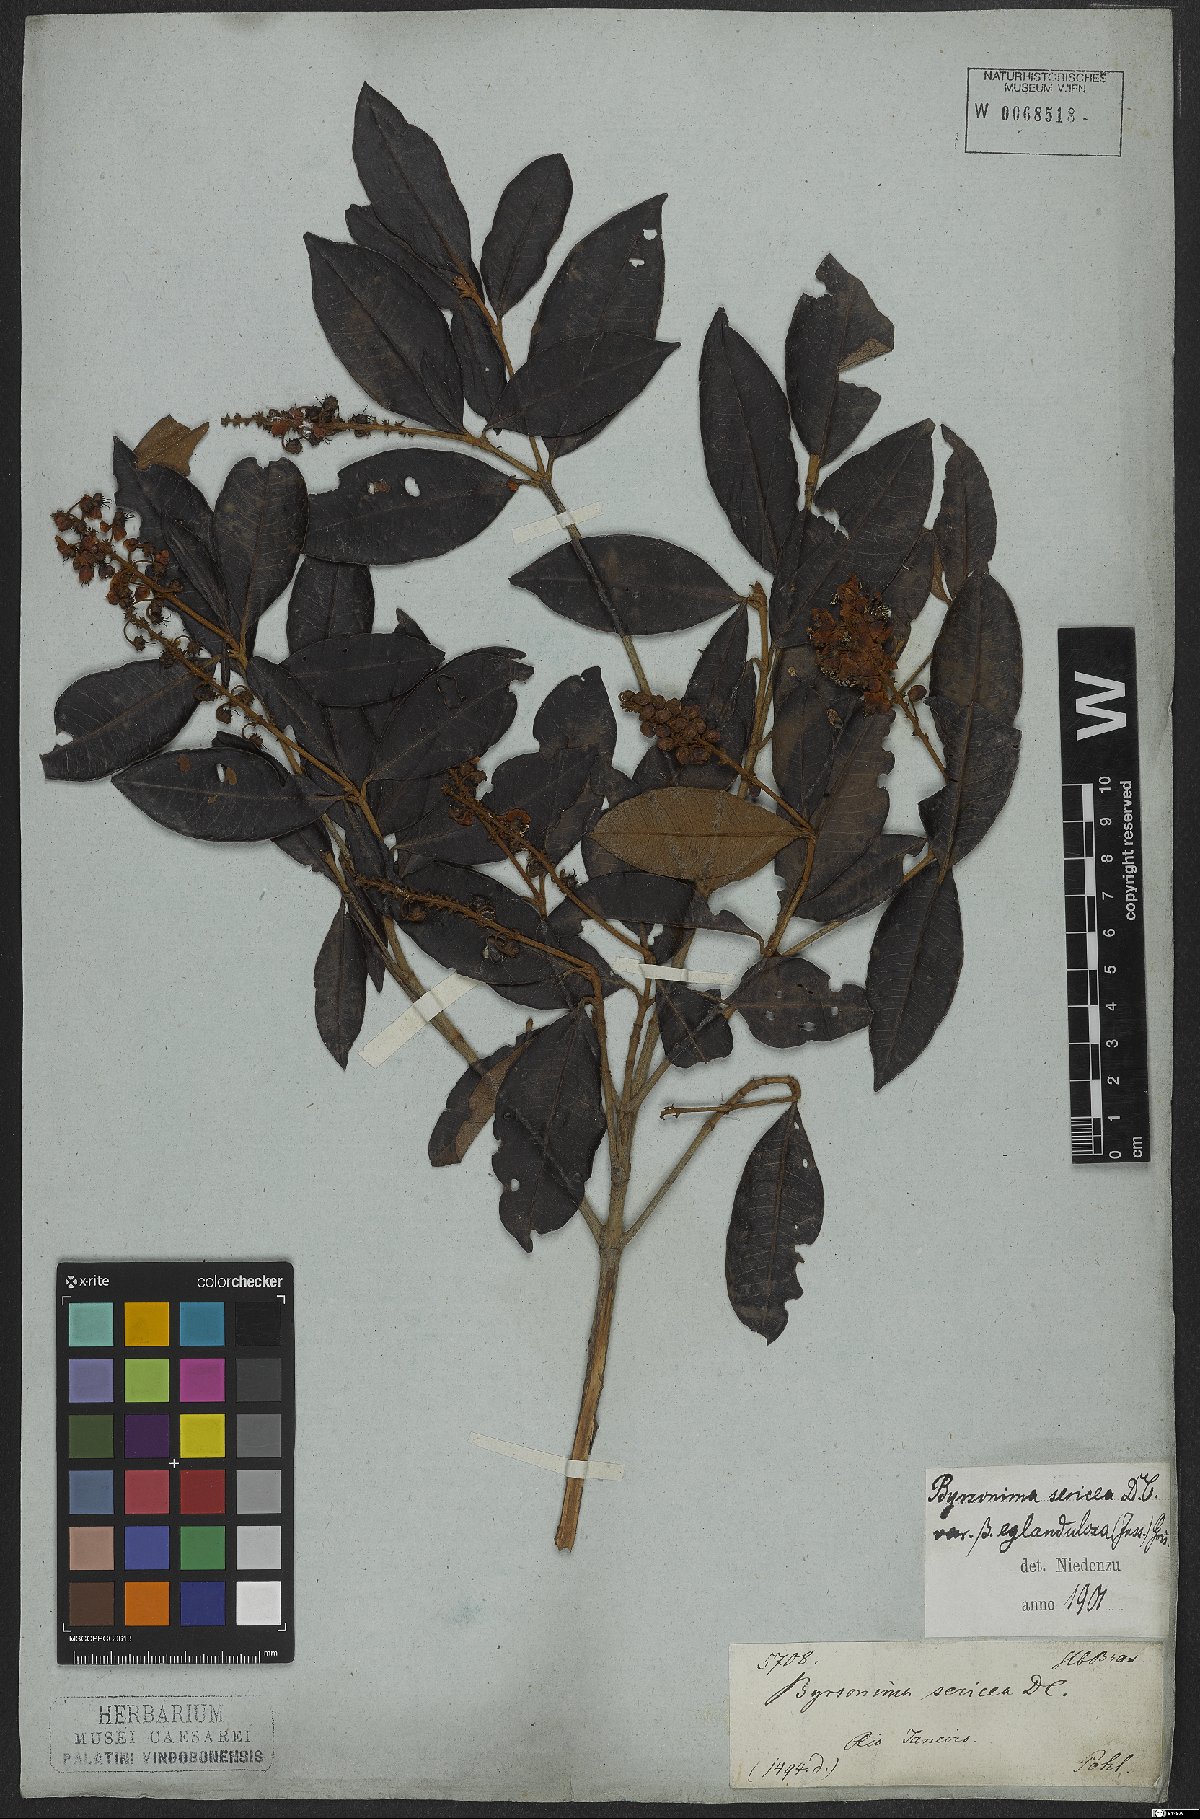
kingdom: Plantae
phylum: Tracheophyta
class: Magnoliopsida
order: Malpighiales
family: Malpighiaceae
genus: Byrsonima
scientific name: Byrsonima sericea
